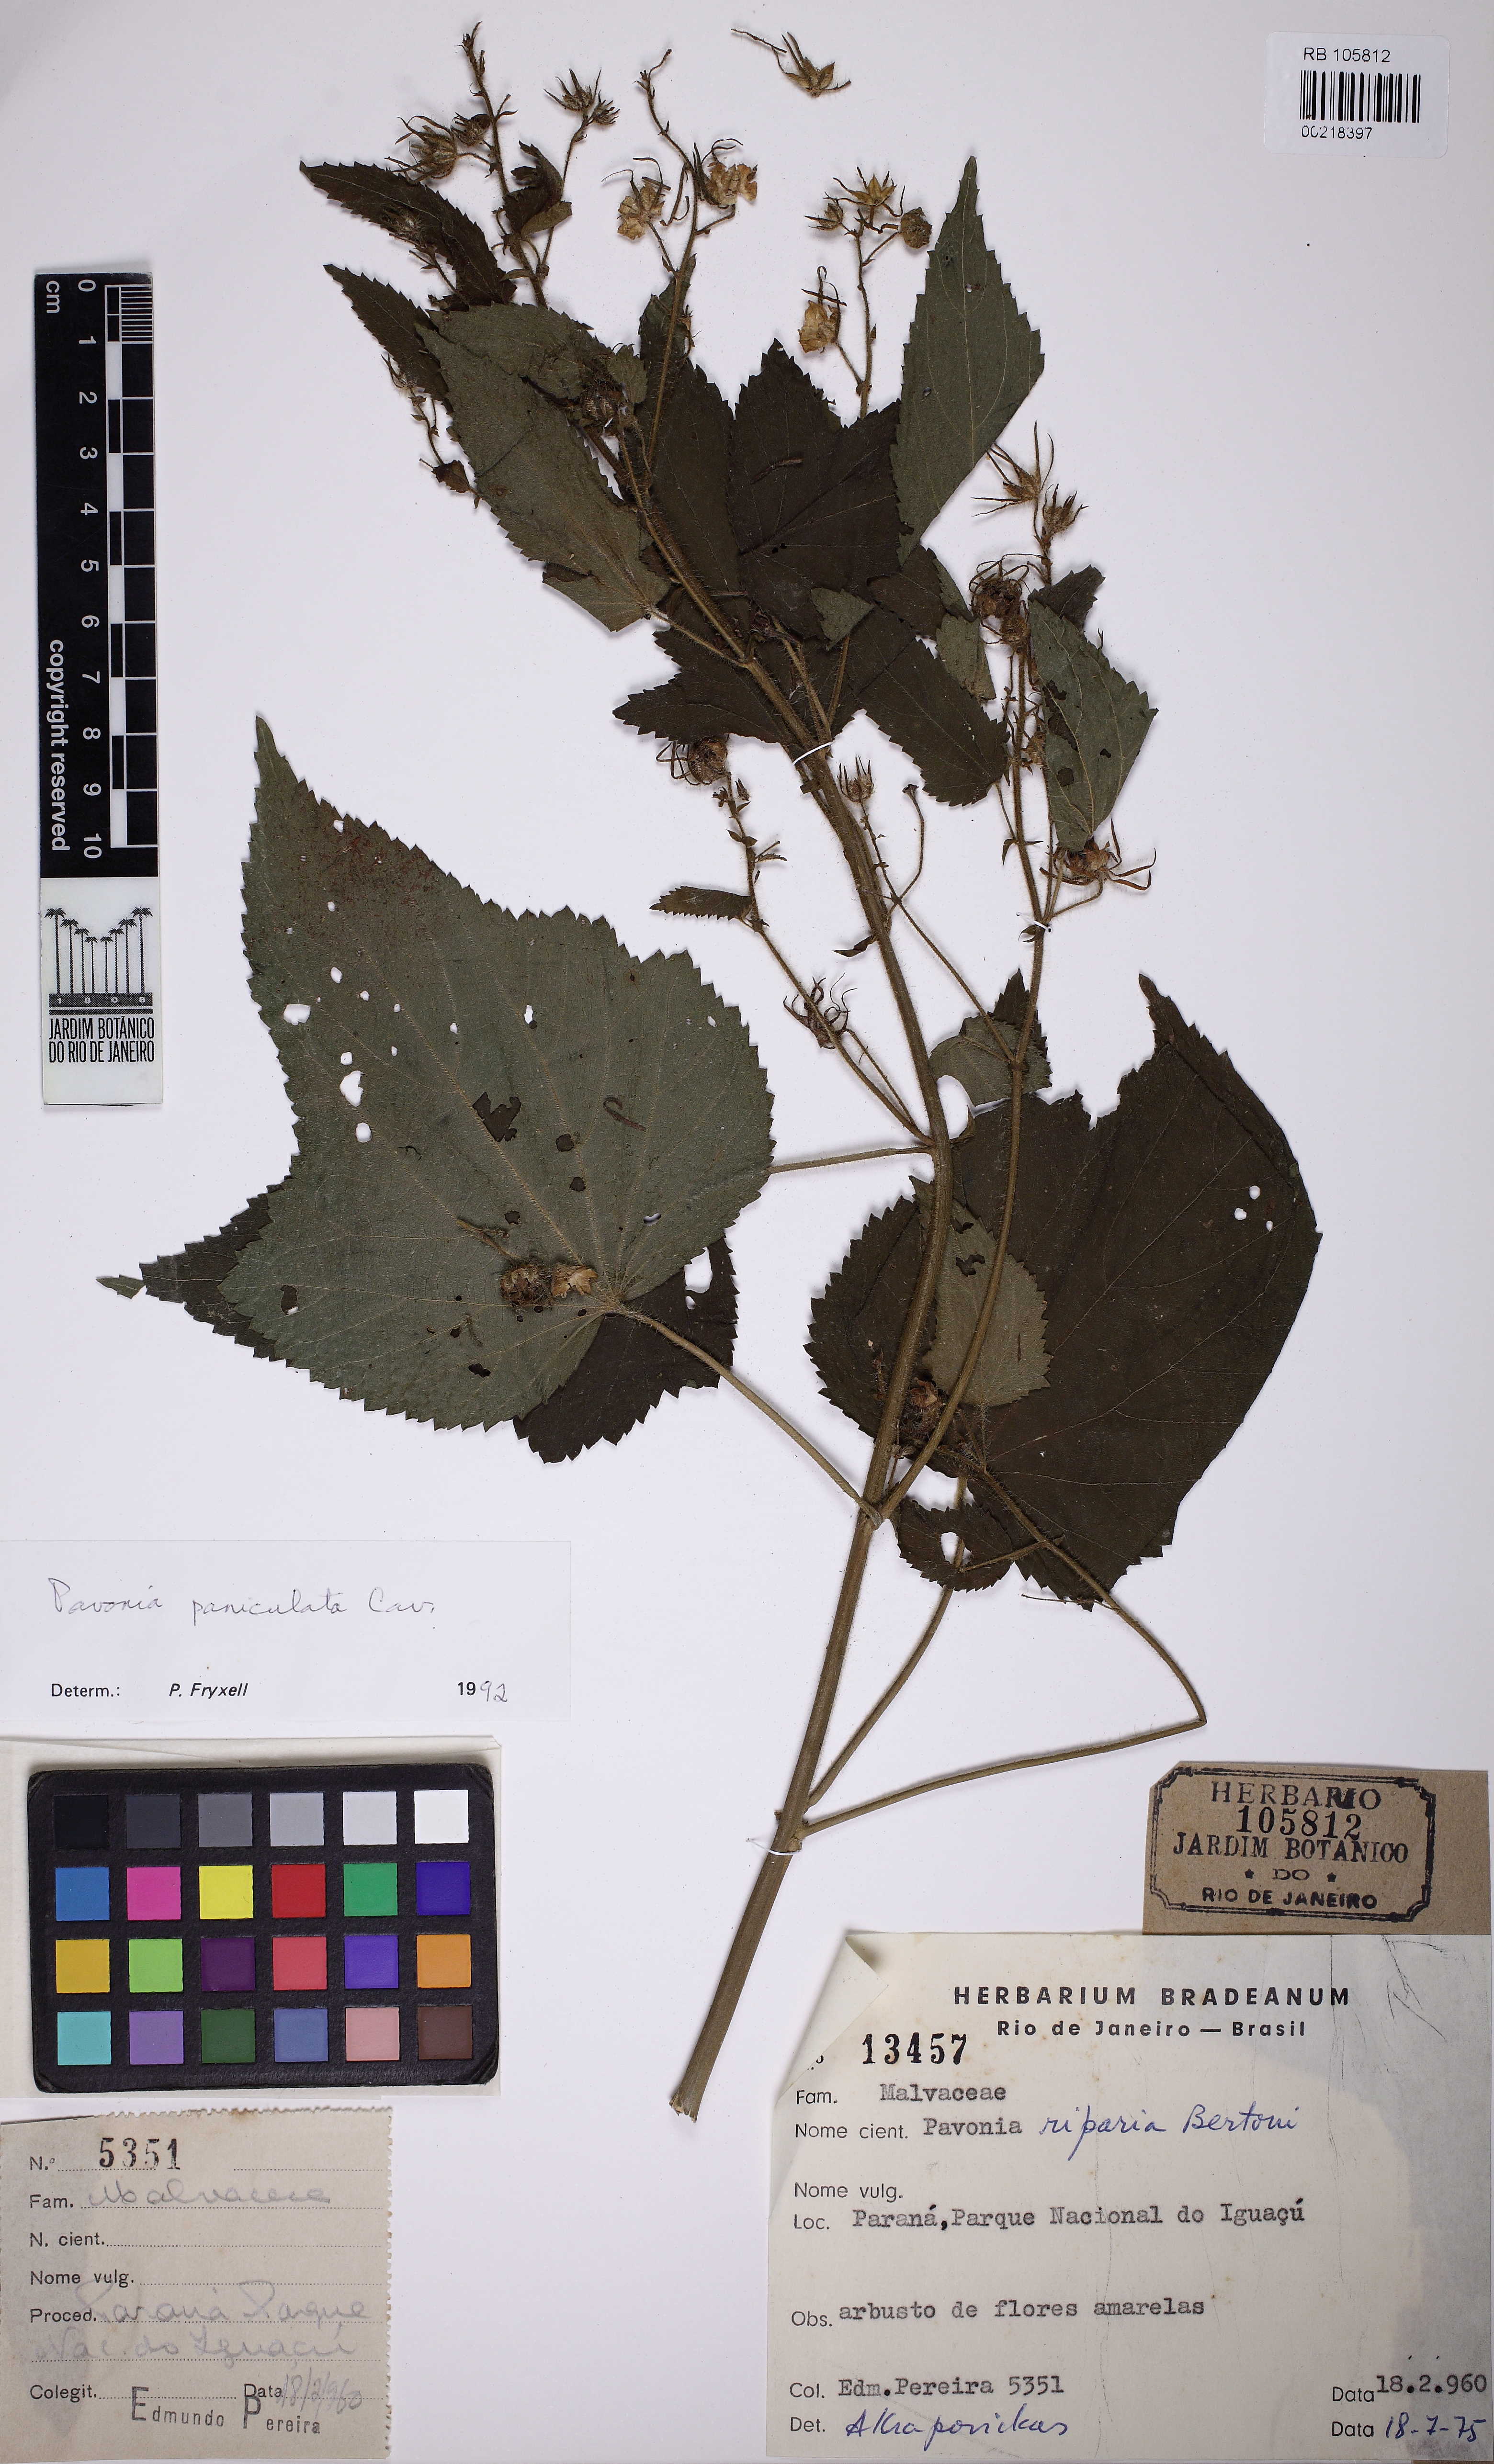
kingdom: Plantae
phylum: Tracheophyta
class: Magnoliopsida
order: Malvales
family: Malvaceae
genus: Pavonia
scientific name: Pavonia paniculata
